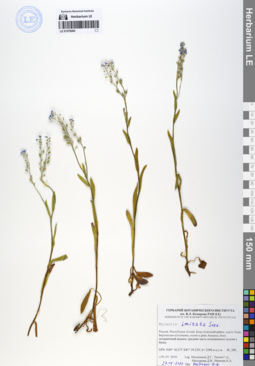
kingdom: Plantae
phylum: Tracheophyta
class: Magnoliopsida
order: Boraginales
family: Boraginaceae
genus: Myosotis
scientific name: Myosotis imitata
